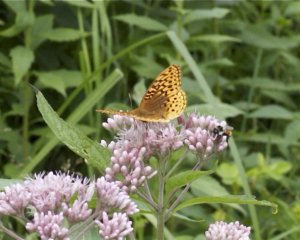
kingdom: Animalia
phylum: Arthropoda
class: Insecta
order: Lepidoptera
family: Nymphalidae
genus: Speyeria
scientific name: Speyeria cybele
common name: Great Spangled Fritillary
